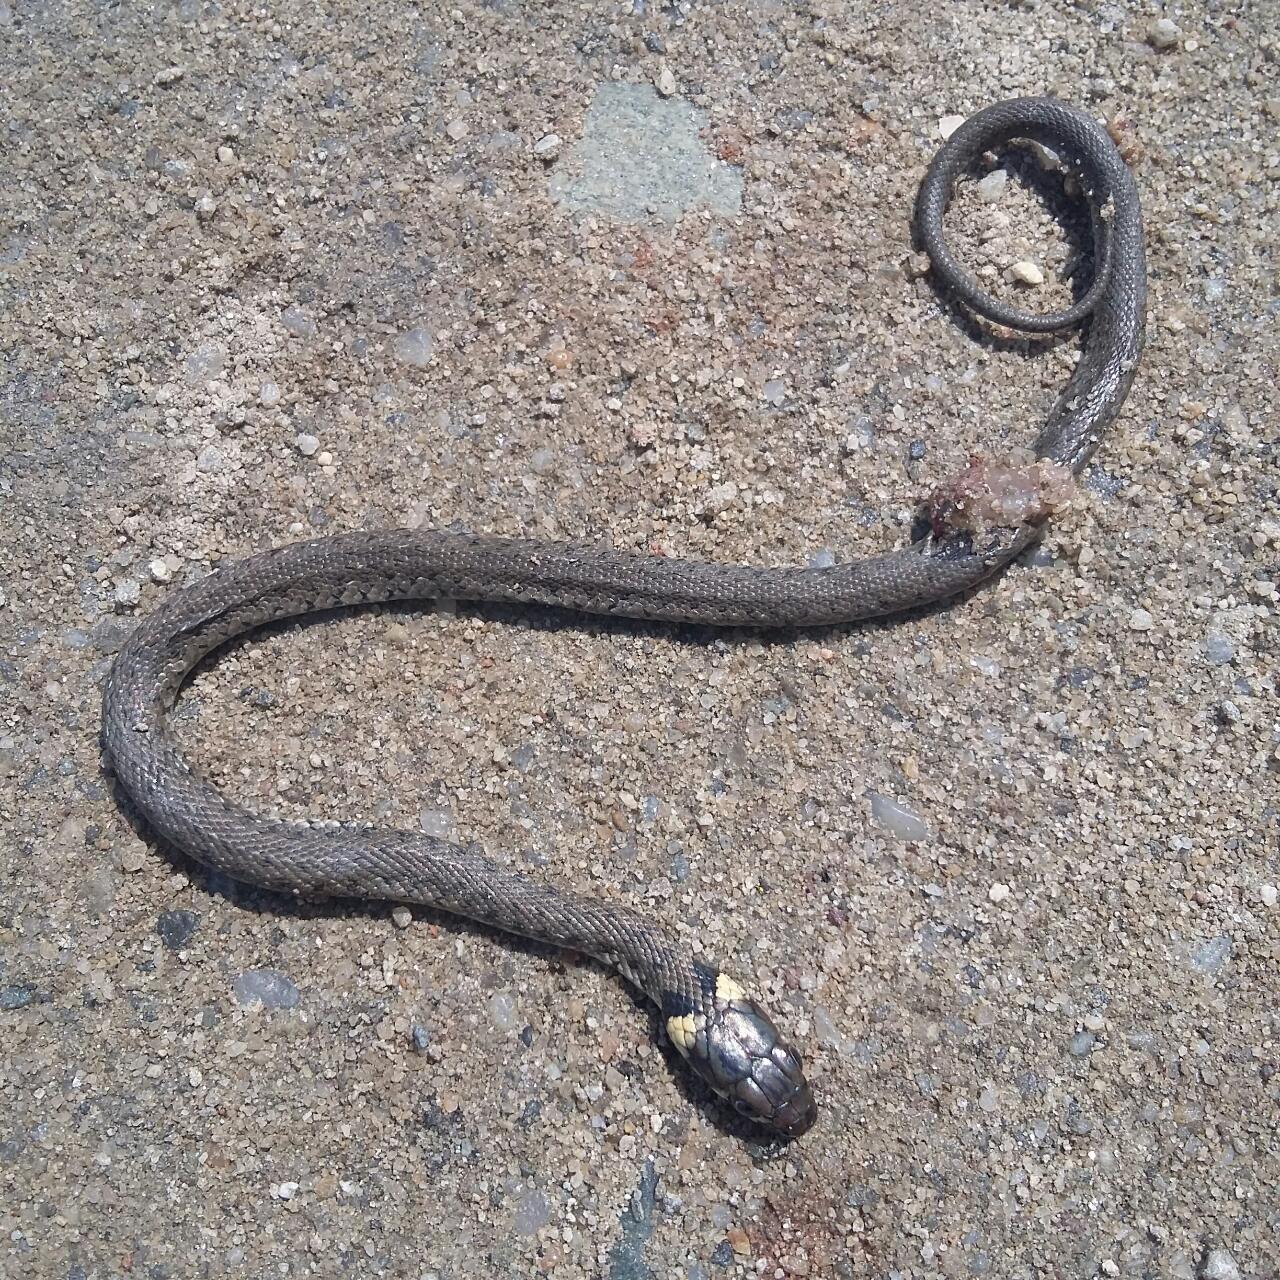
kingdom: Animalia
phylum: Chordata
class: Squamata
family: Colubridae
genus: Natrix
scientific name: Natrix natrix
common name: Grass snake
